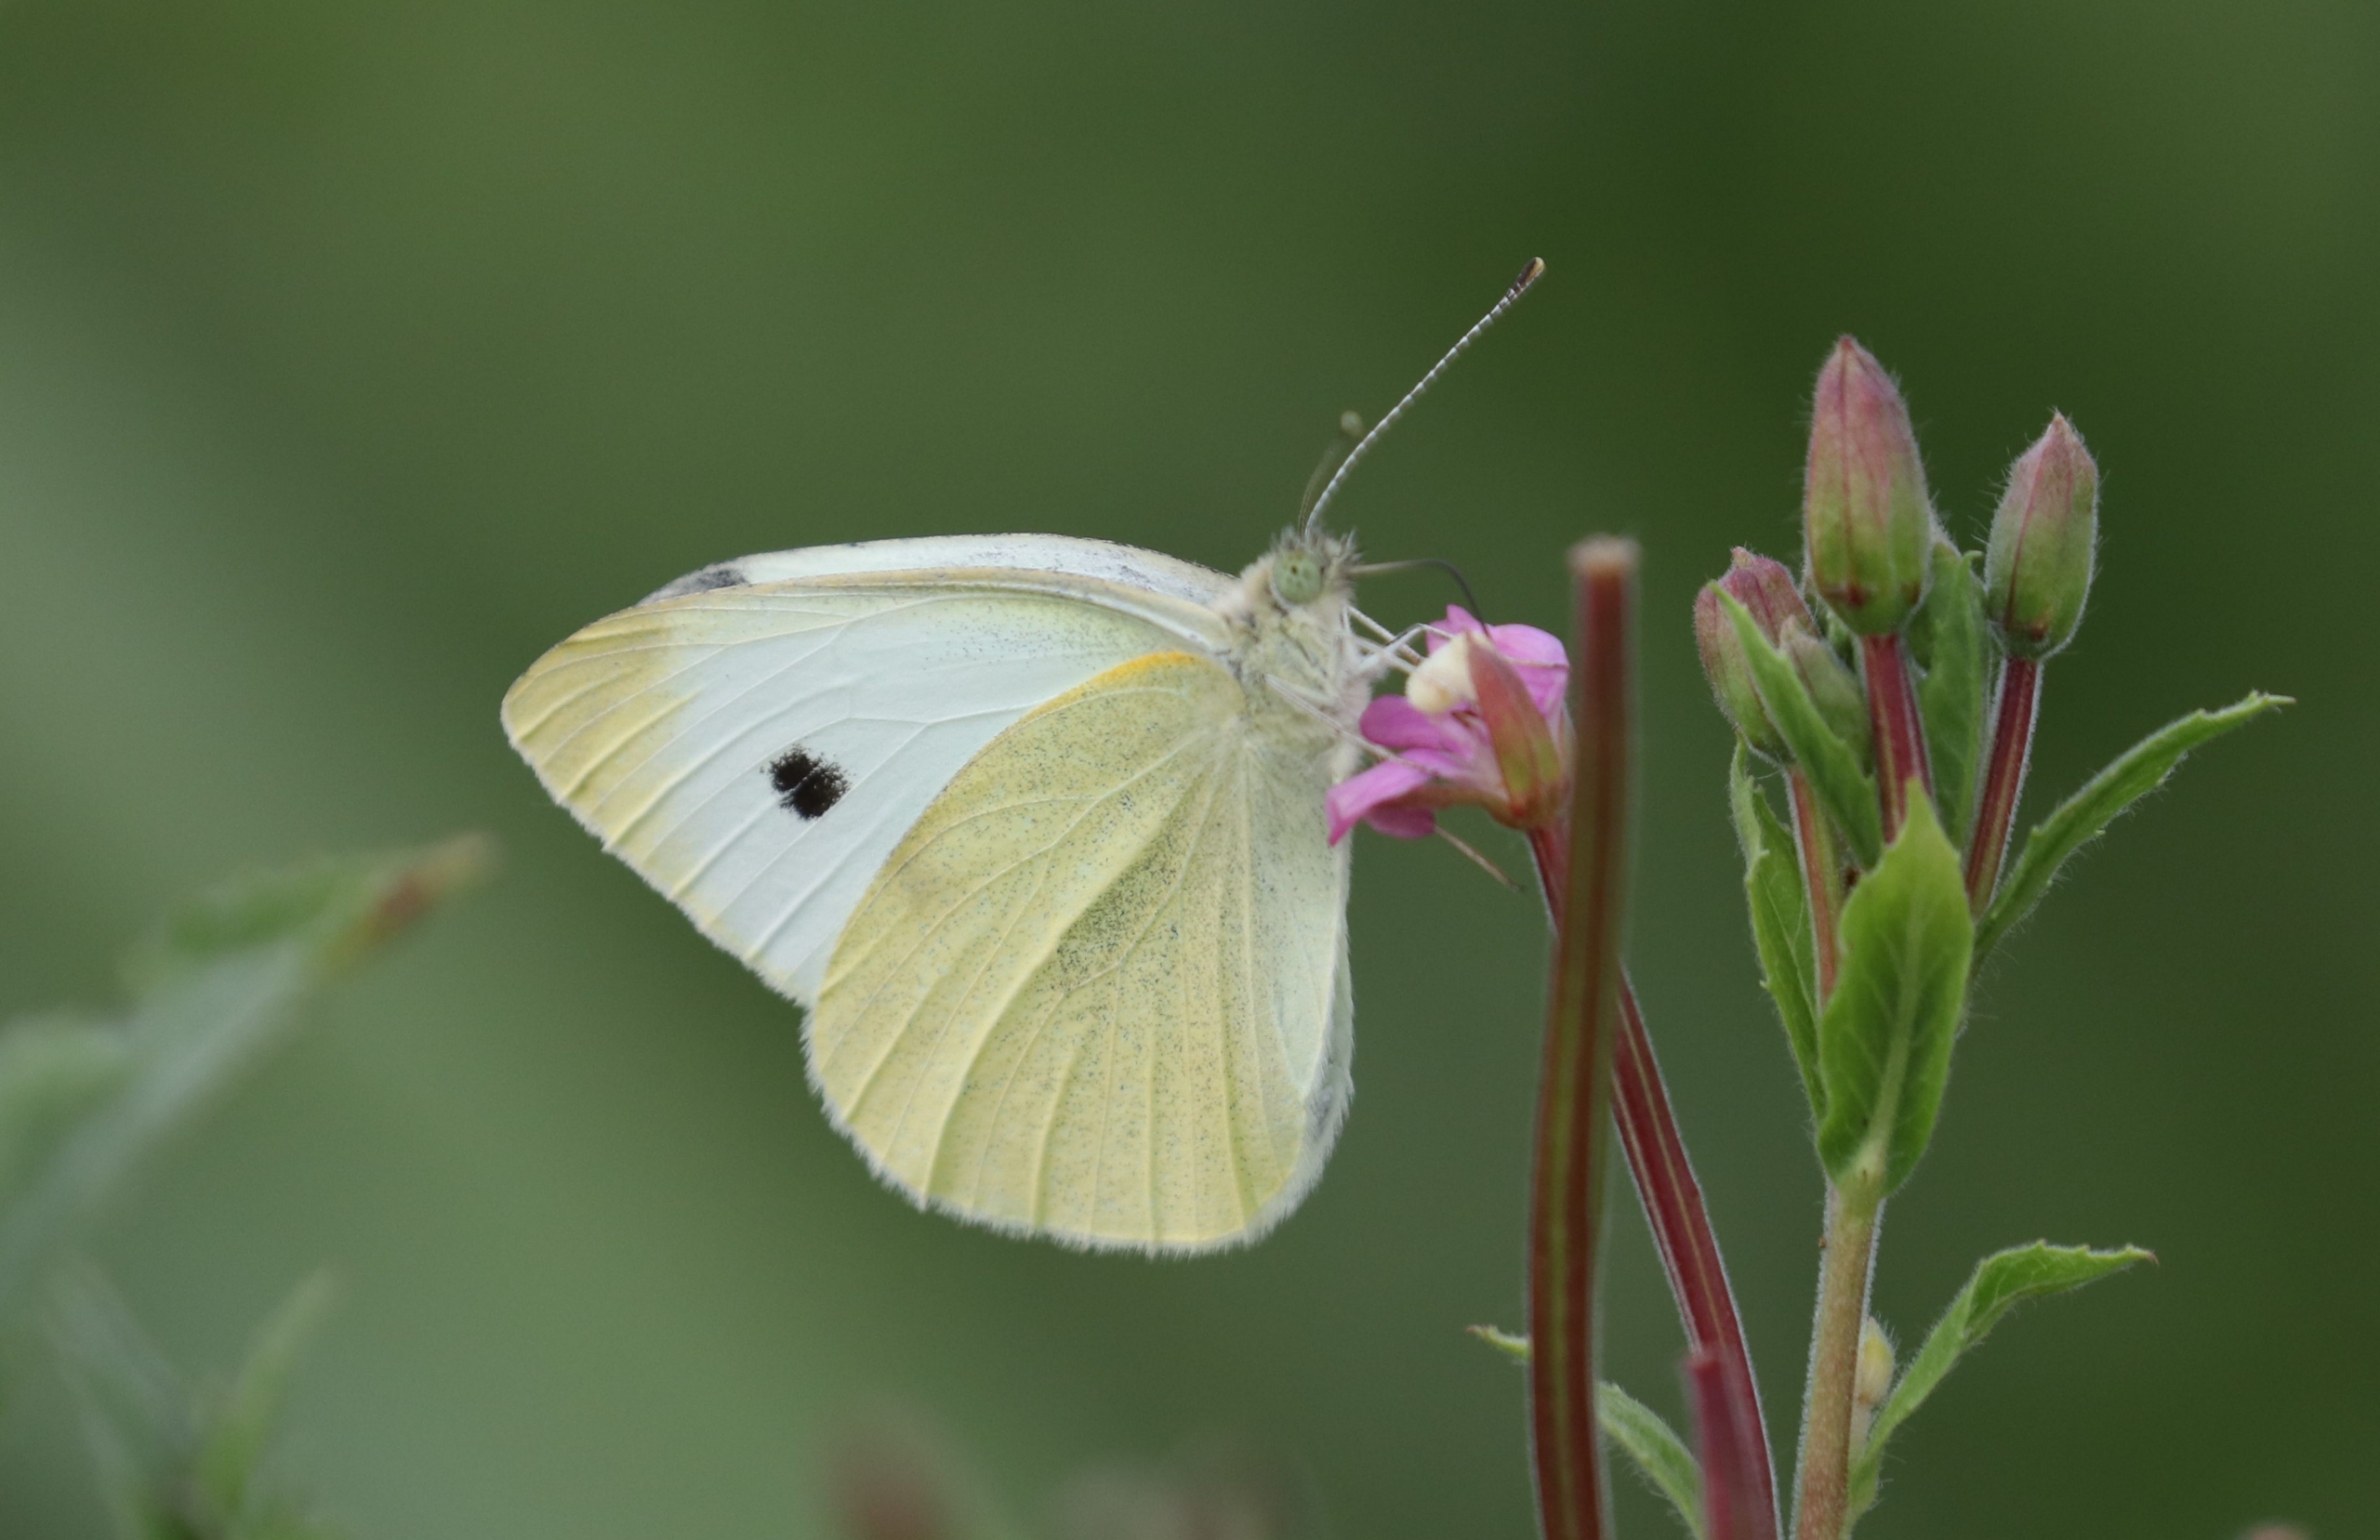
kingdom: Animalia
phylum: Arthropoda
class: Insecta
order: Lepidoptera
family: Pieridae
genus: Pieris
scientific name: Pieris brassicae
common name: Stor kålsommerfugl
